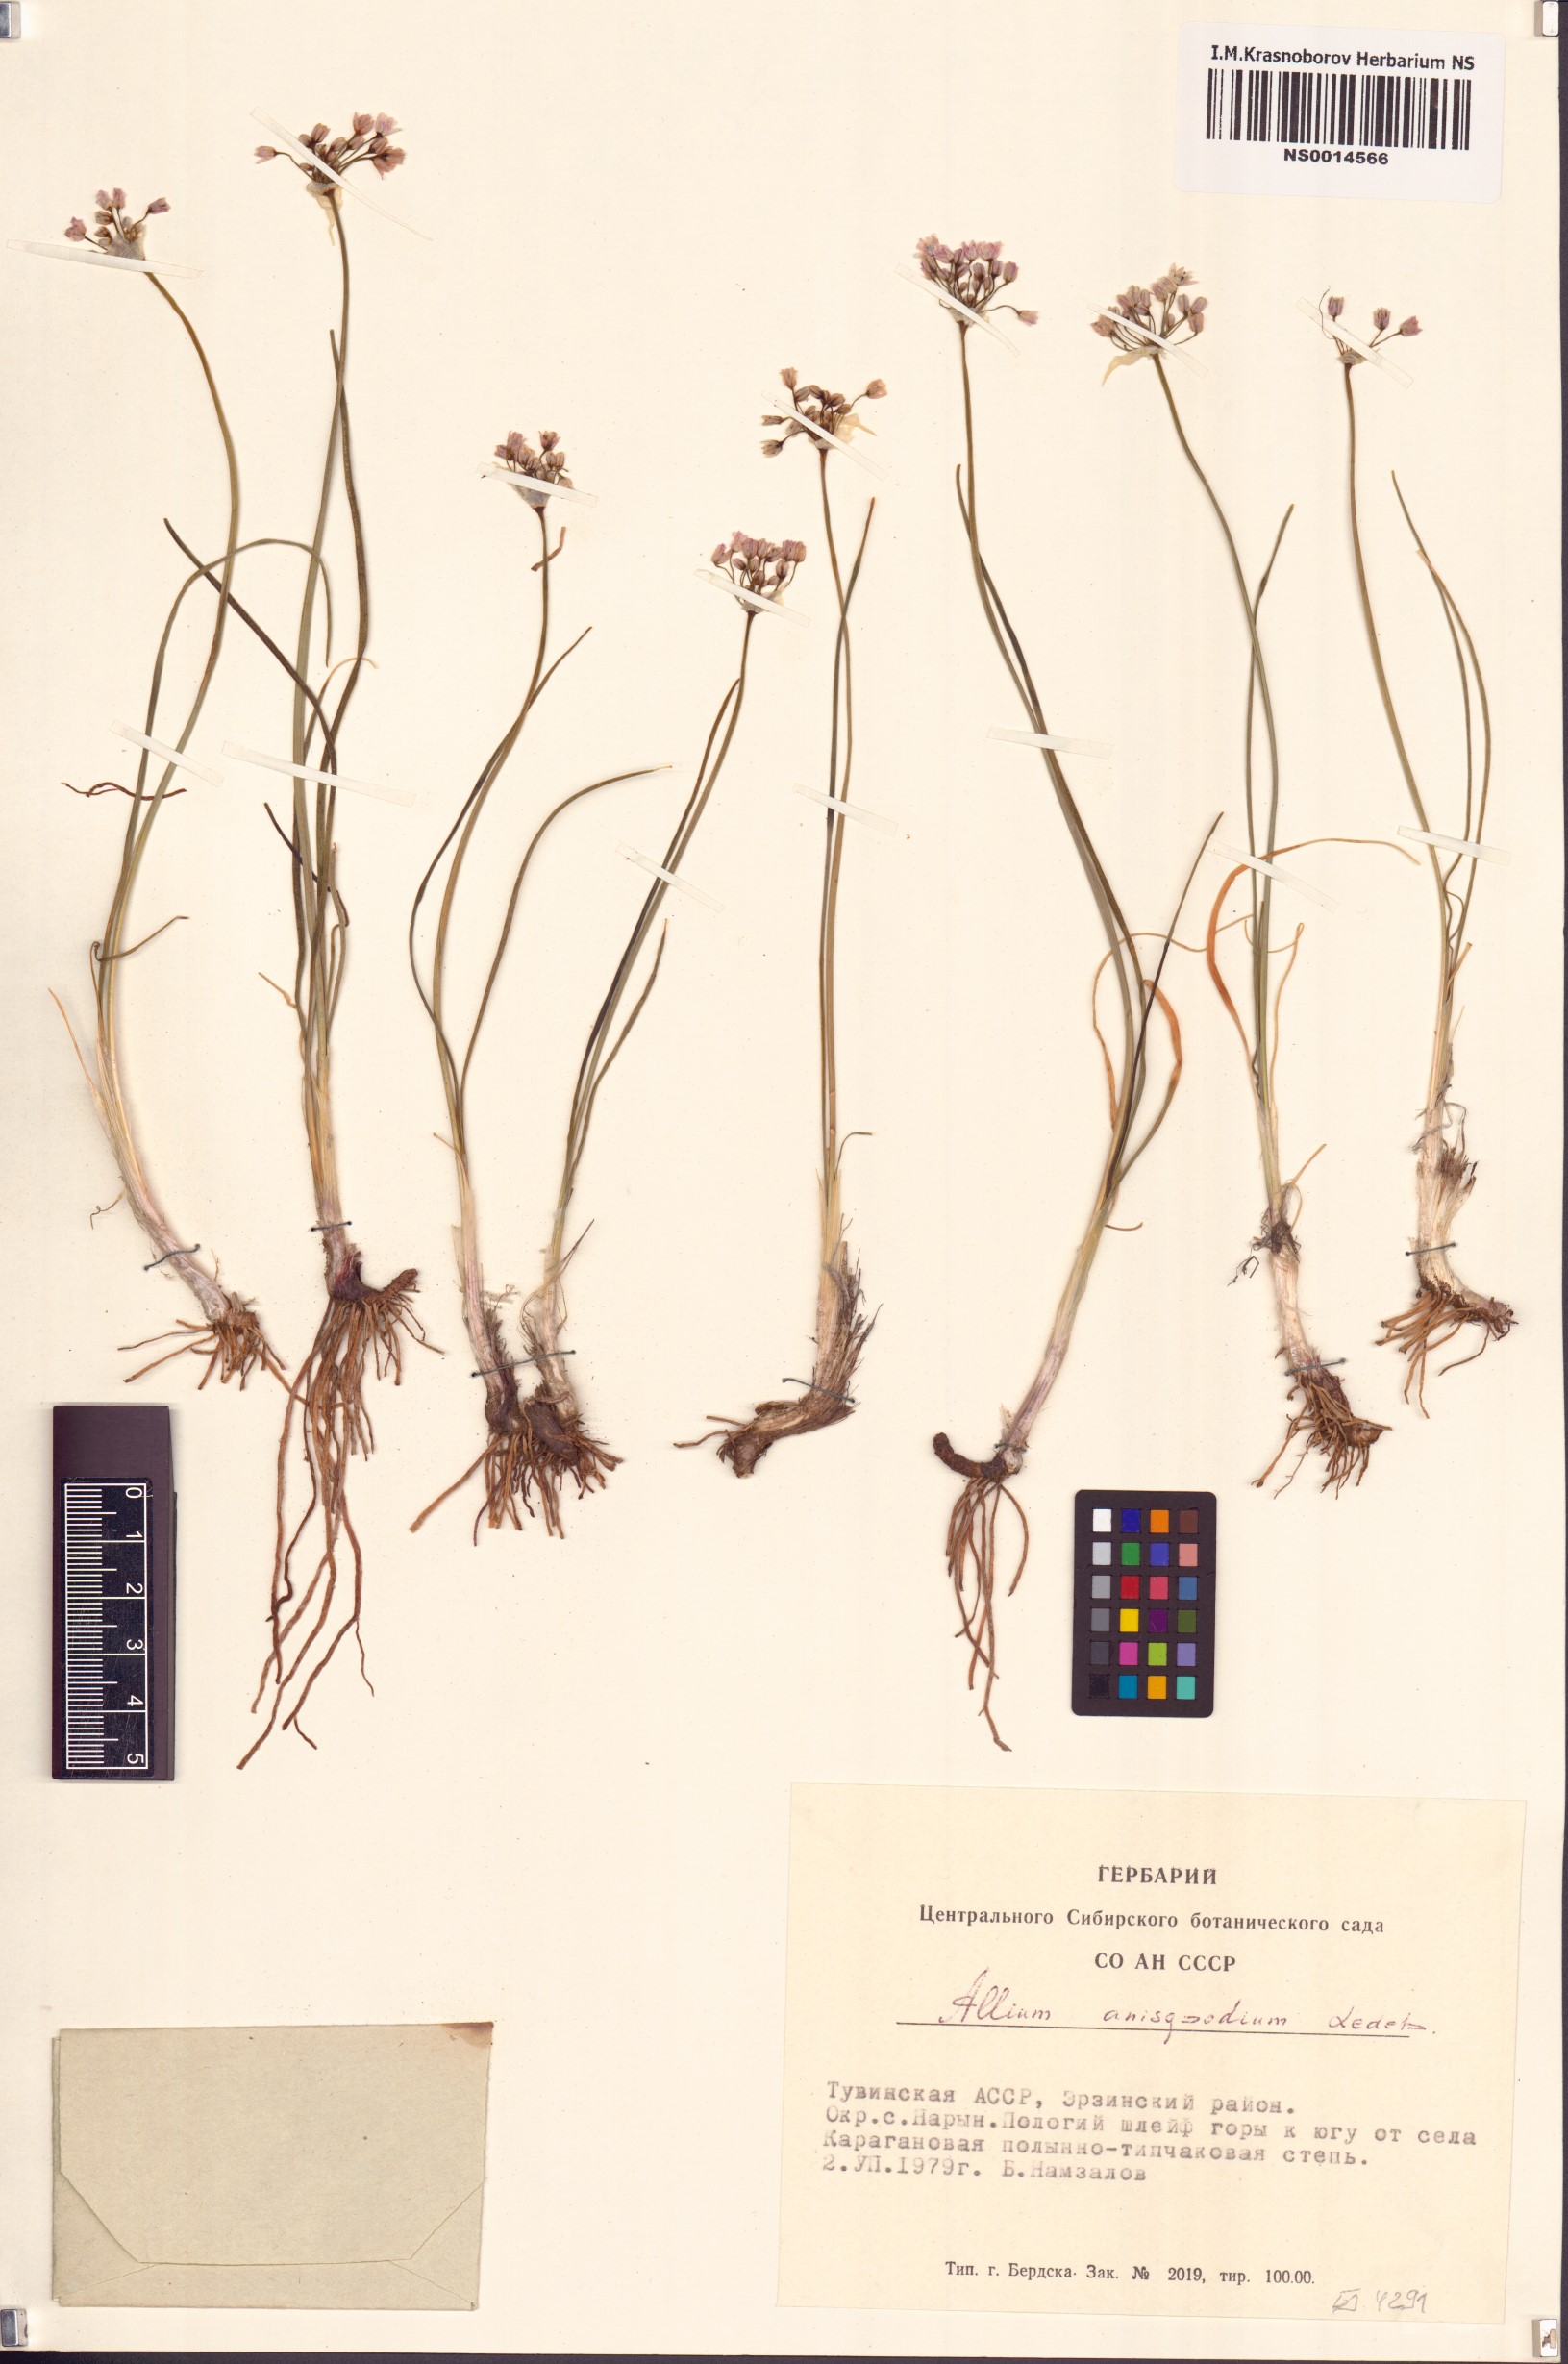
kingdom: Plantae
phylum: Tracheophyta
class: Liliopsida
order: Asparagales
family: Amaryllidaceae
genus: Allium
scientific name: Allium anisopodium
